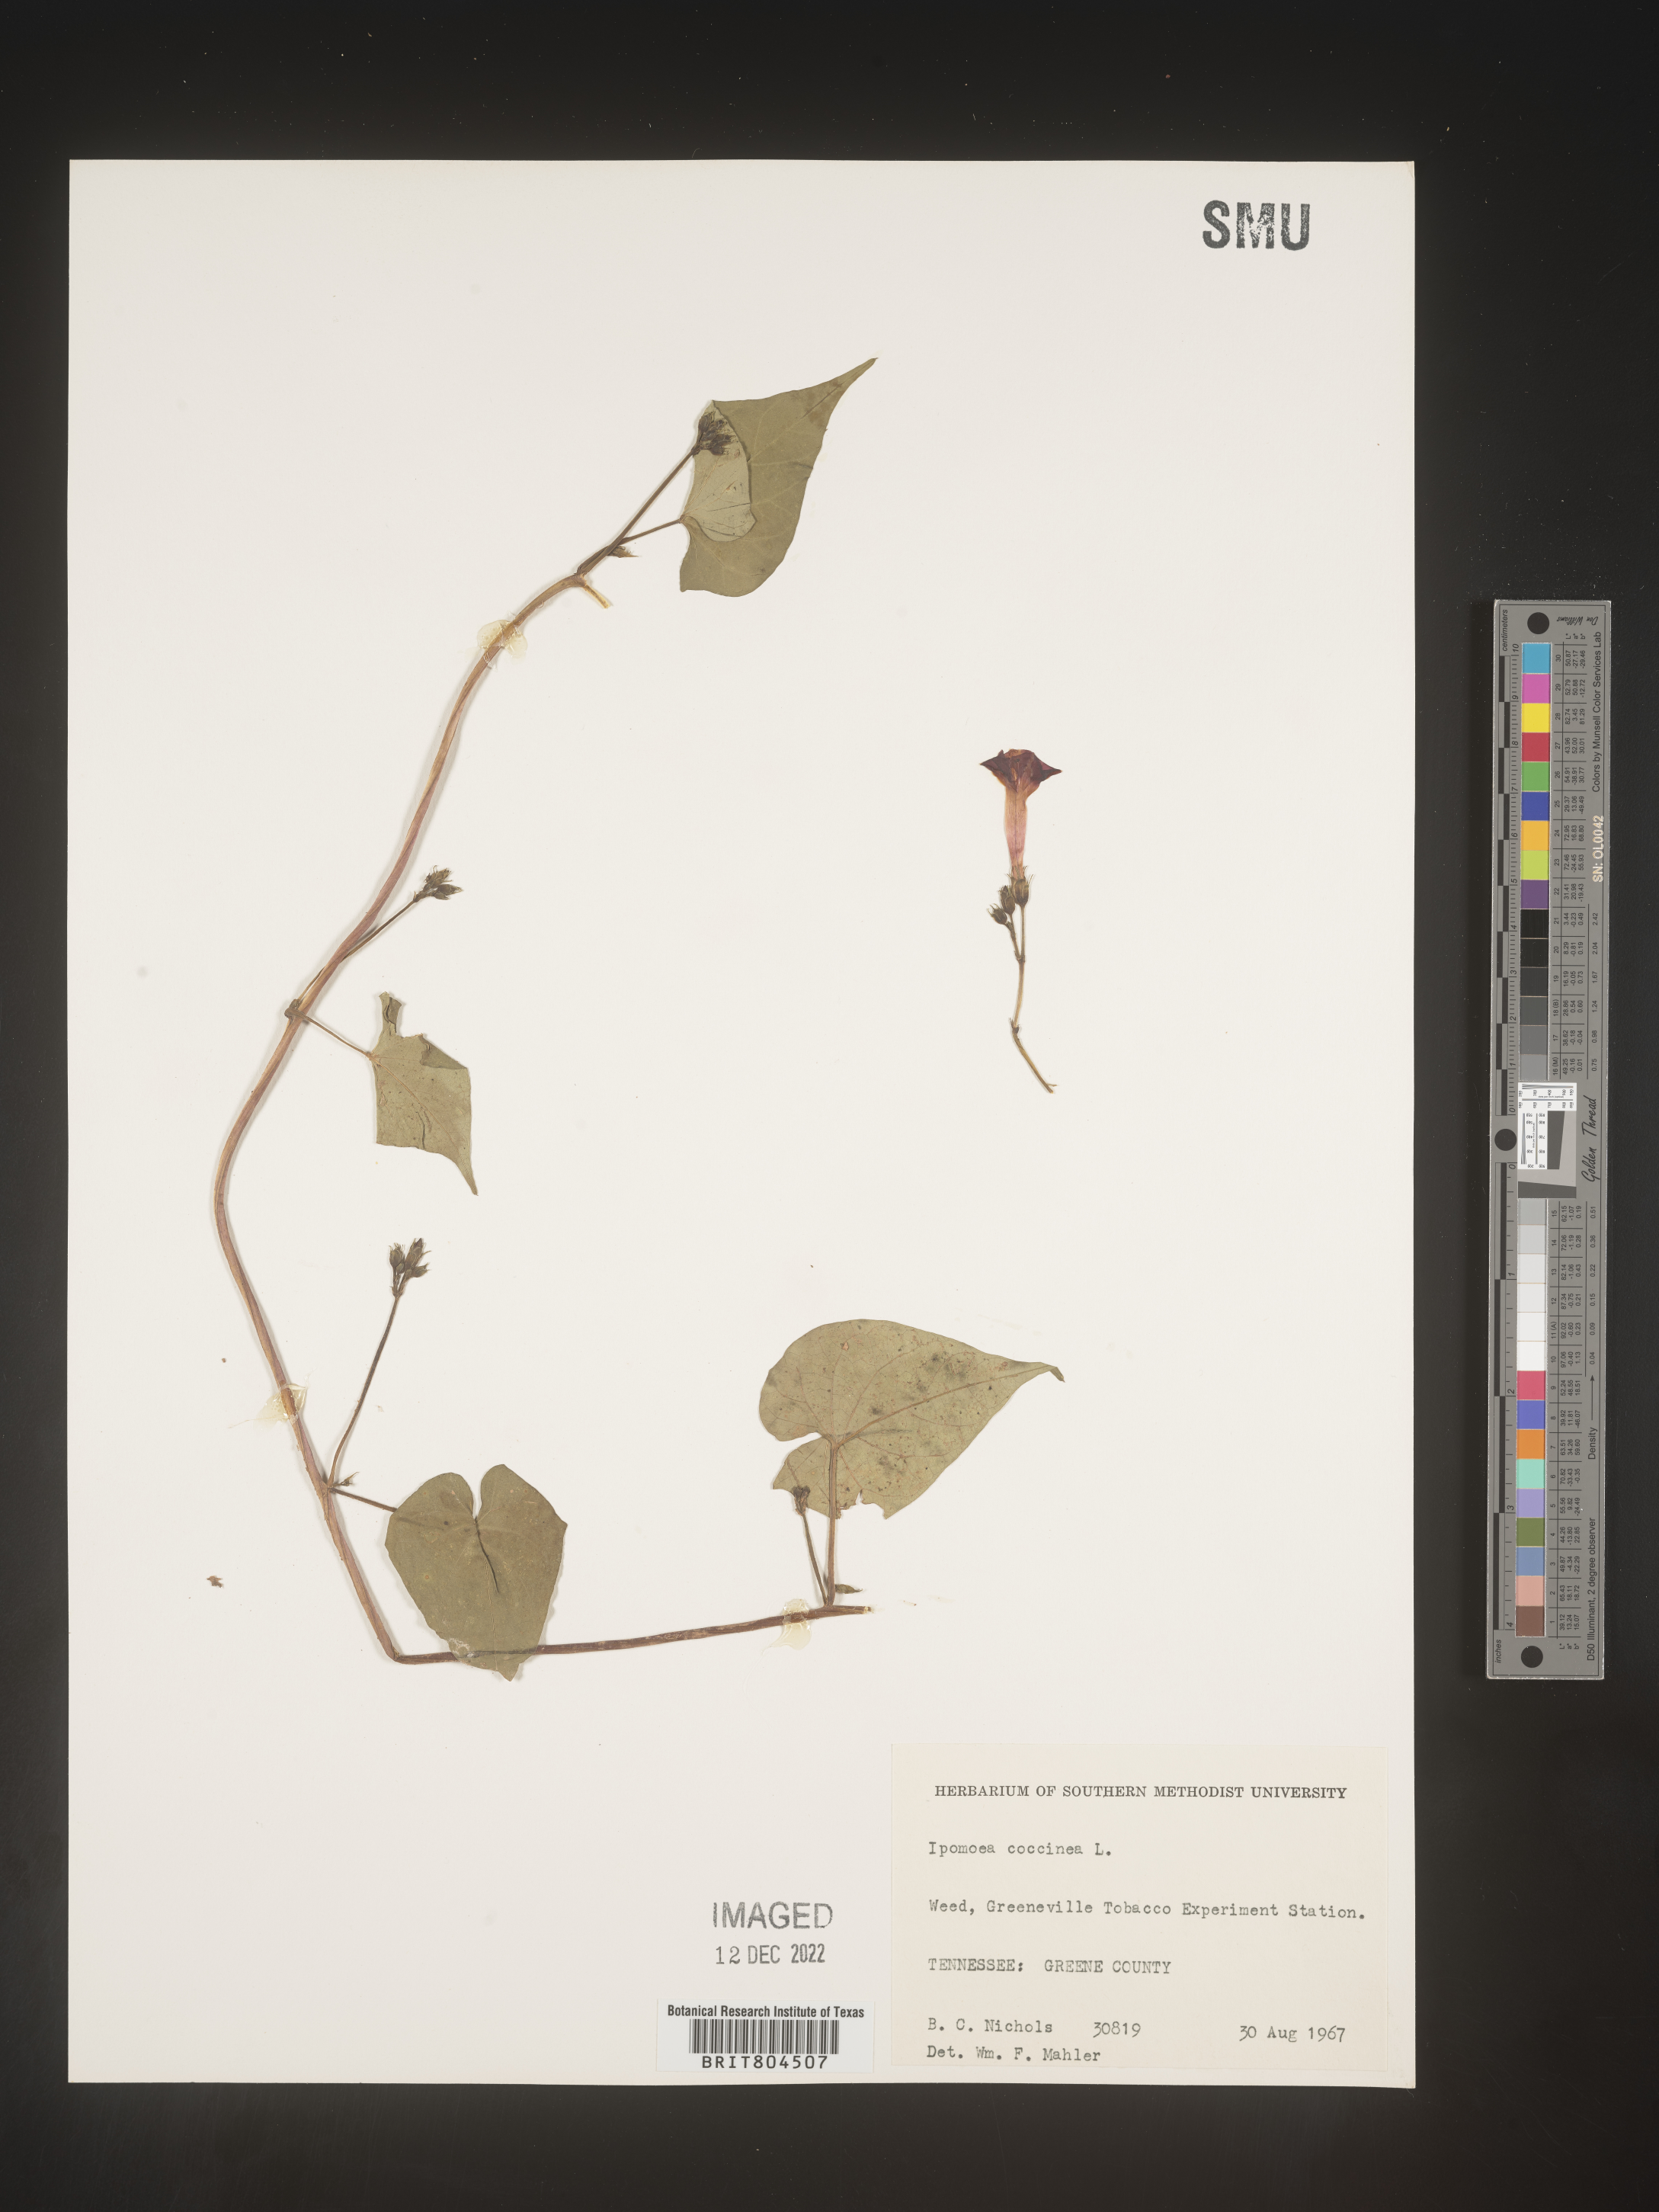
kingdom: Plantae
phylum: Tracheophyta
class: Magnoliopsida
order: Solanales
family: Convolvulaceae
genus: Ipomoea
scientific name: Ipomoea coccinea
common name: Red morning-glory
